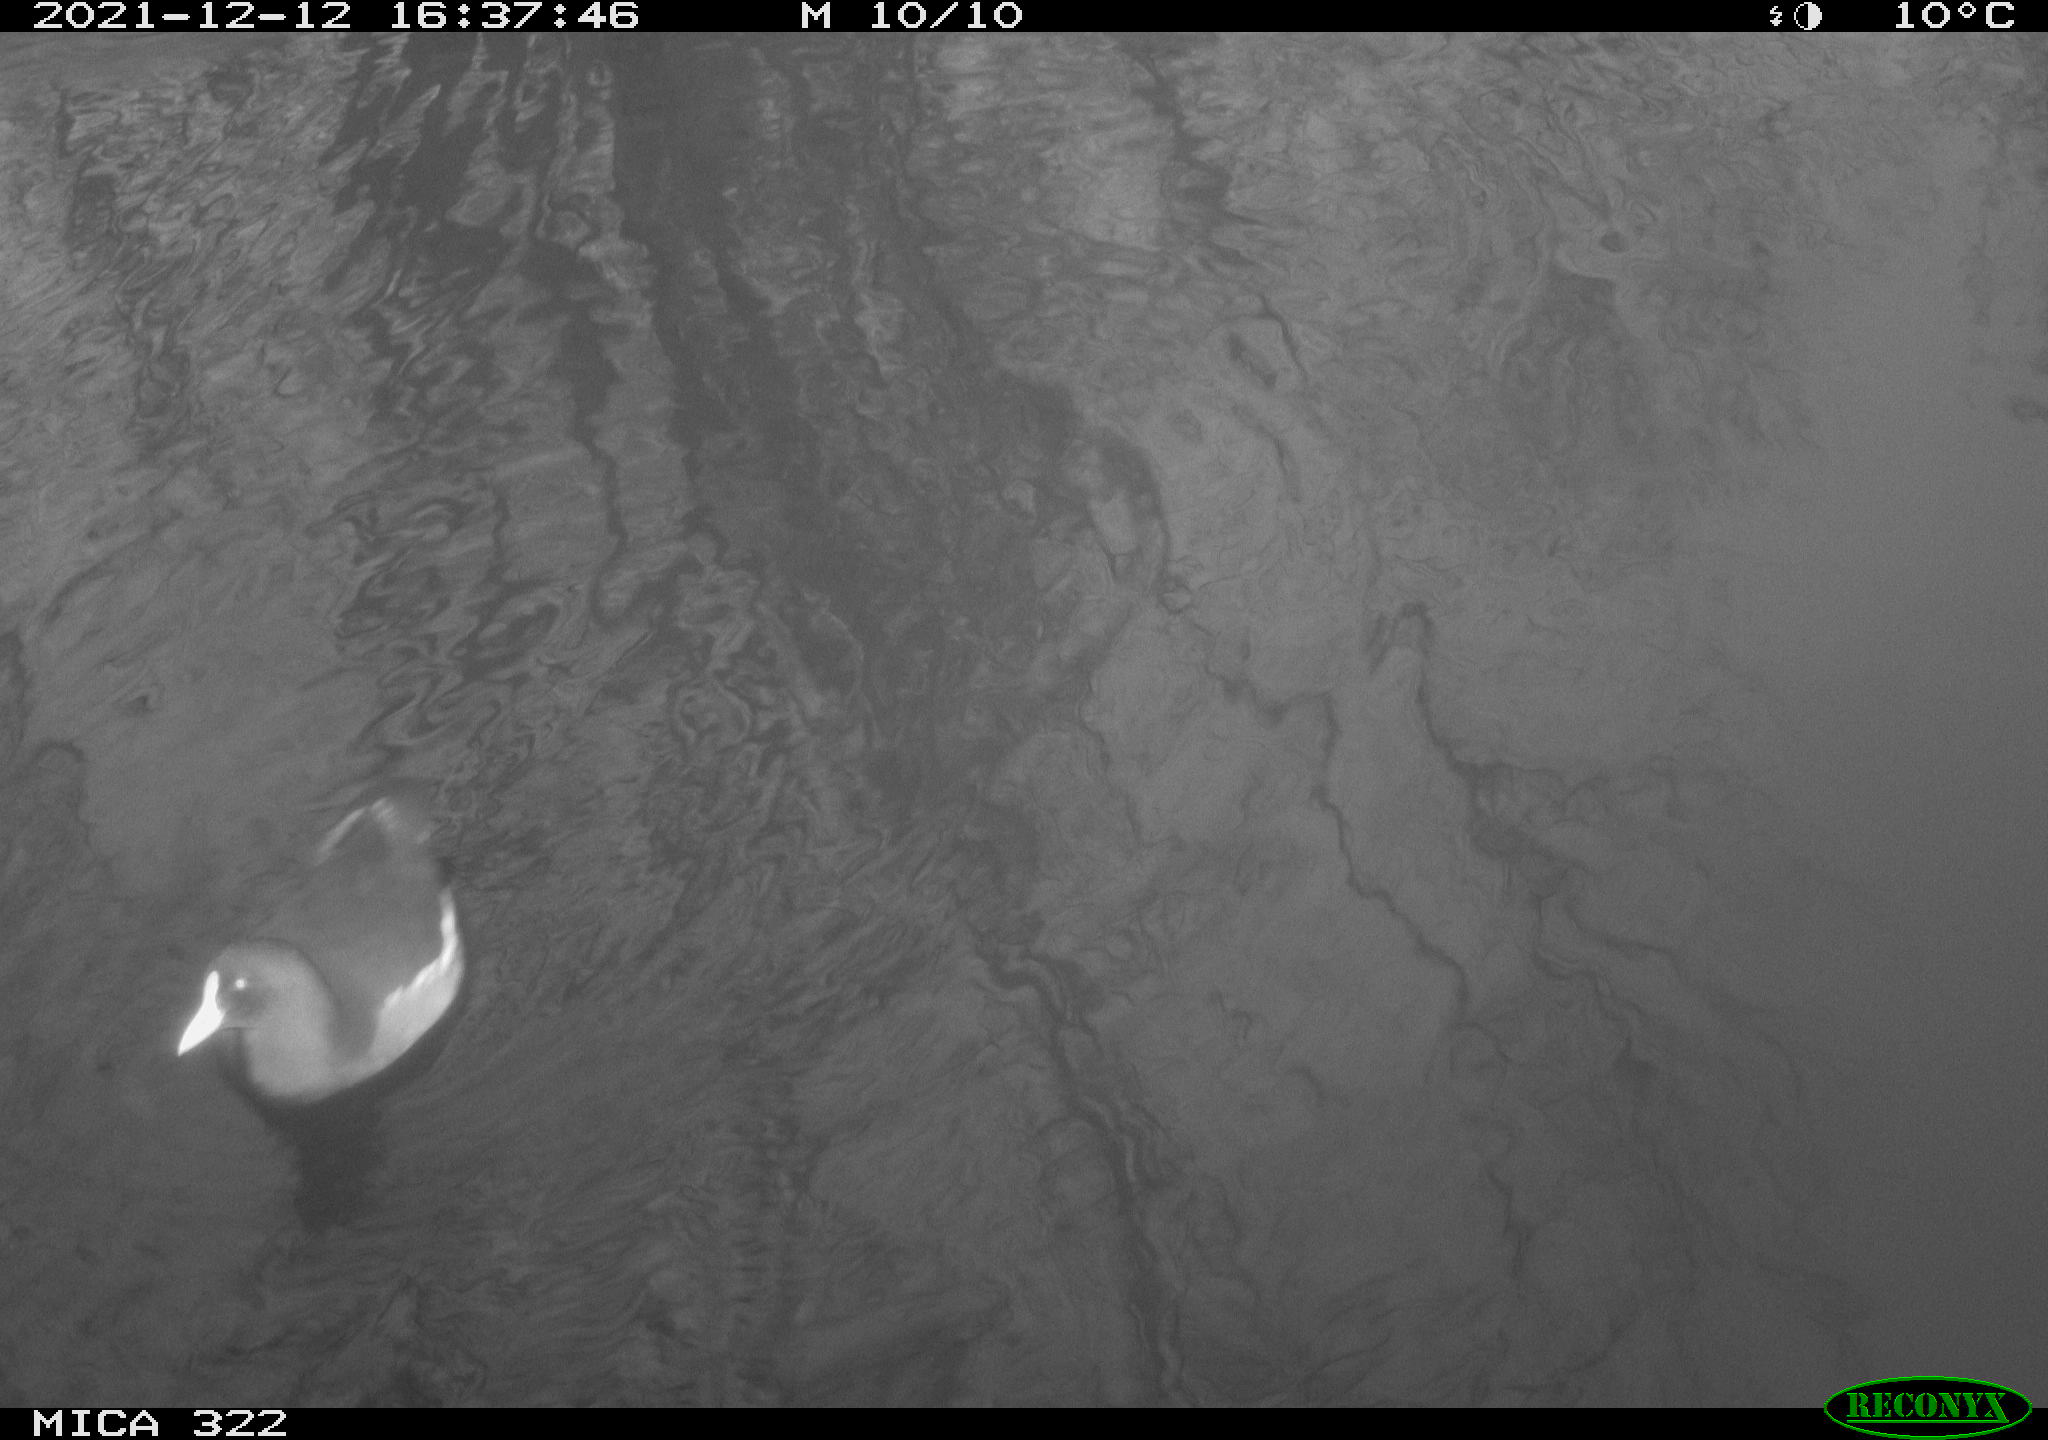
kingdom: Animalia
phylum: Chordata
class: Aves
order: Anseriformes
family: Anatidae
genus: Anas
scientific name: Anas
